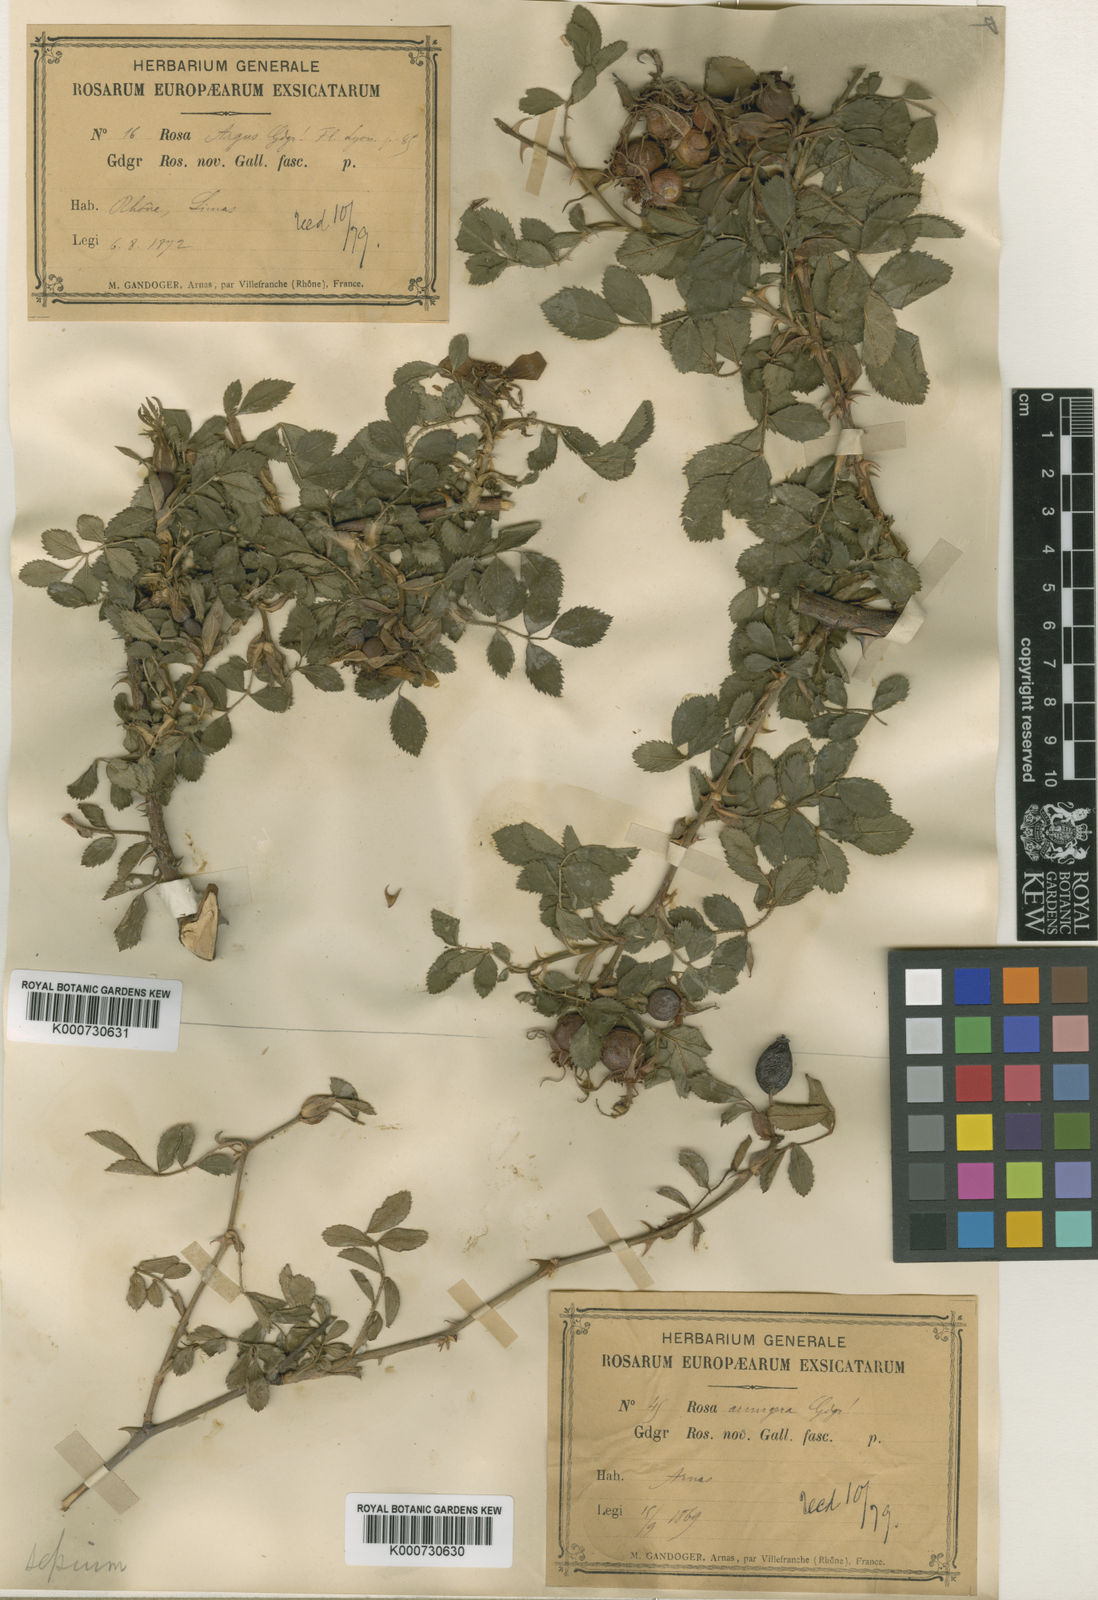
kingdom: Plantae
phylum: Tracheophyta
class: Magnoliopsida
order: Rosales
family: Rosaceae
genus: Rosa
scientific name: Rosa agrestis
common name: Fieldbriar
